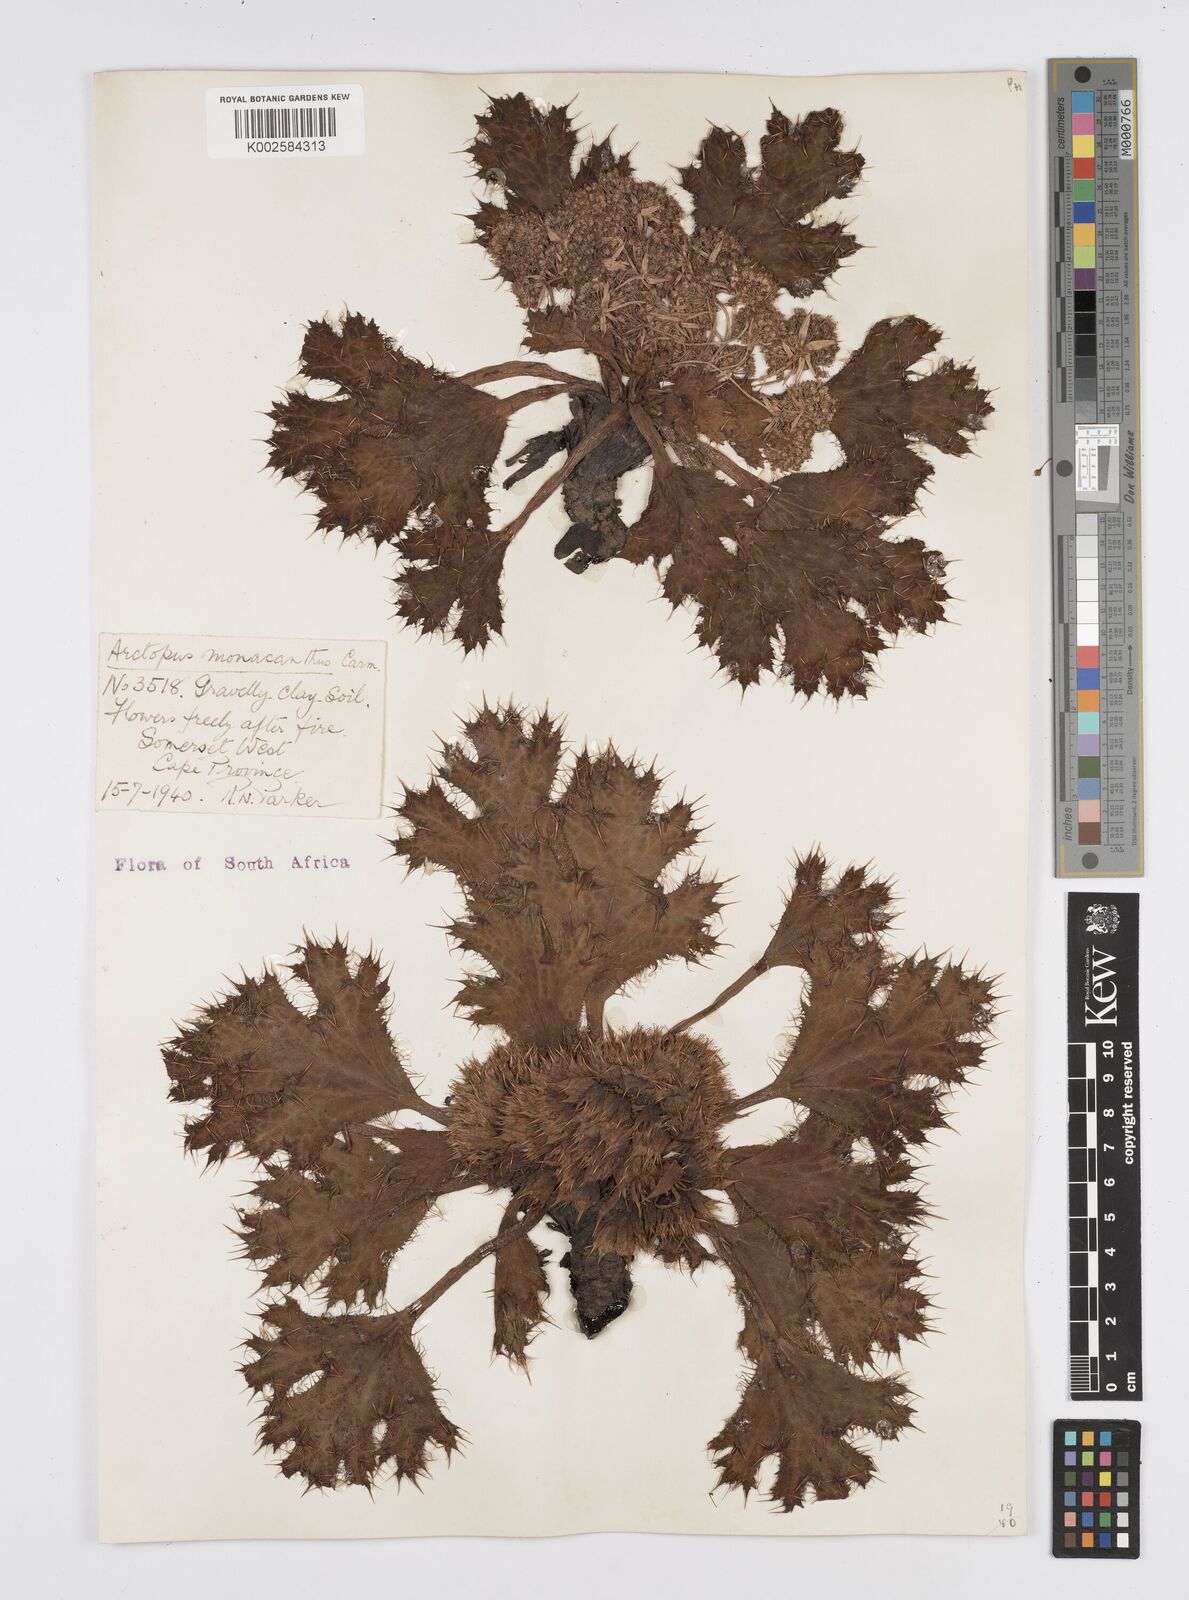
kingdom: Plantae
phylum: Tracheophyta
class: Magnoliopsida
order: Apiales
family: Apiaceae
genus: Arctopus
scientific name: Arctopus monacanthus
